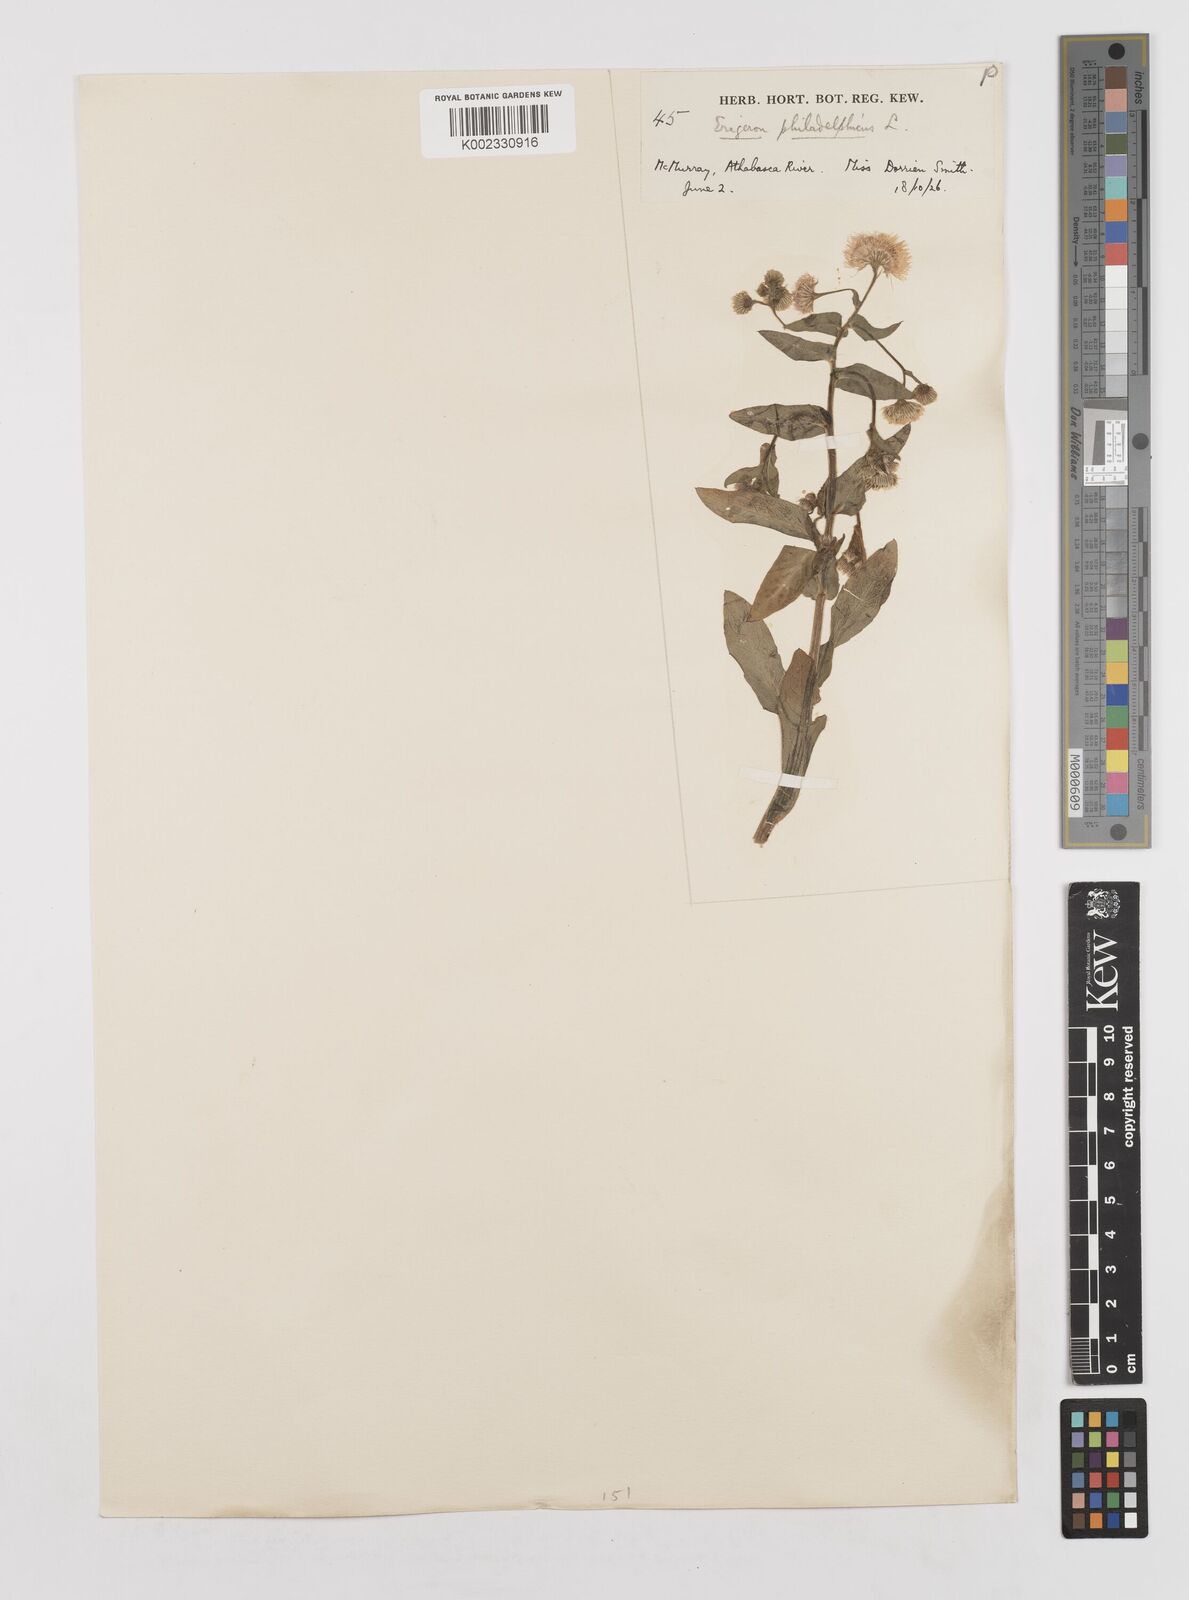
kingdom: Plantae
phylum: Tracheophyta
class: Magnoliopsida
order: Asterales
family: Asteraceae
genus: Erigeron
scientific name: Erigeron philadelphicus
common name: Robin's-plantain
